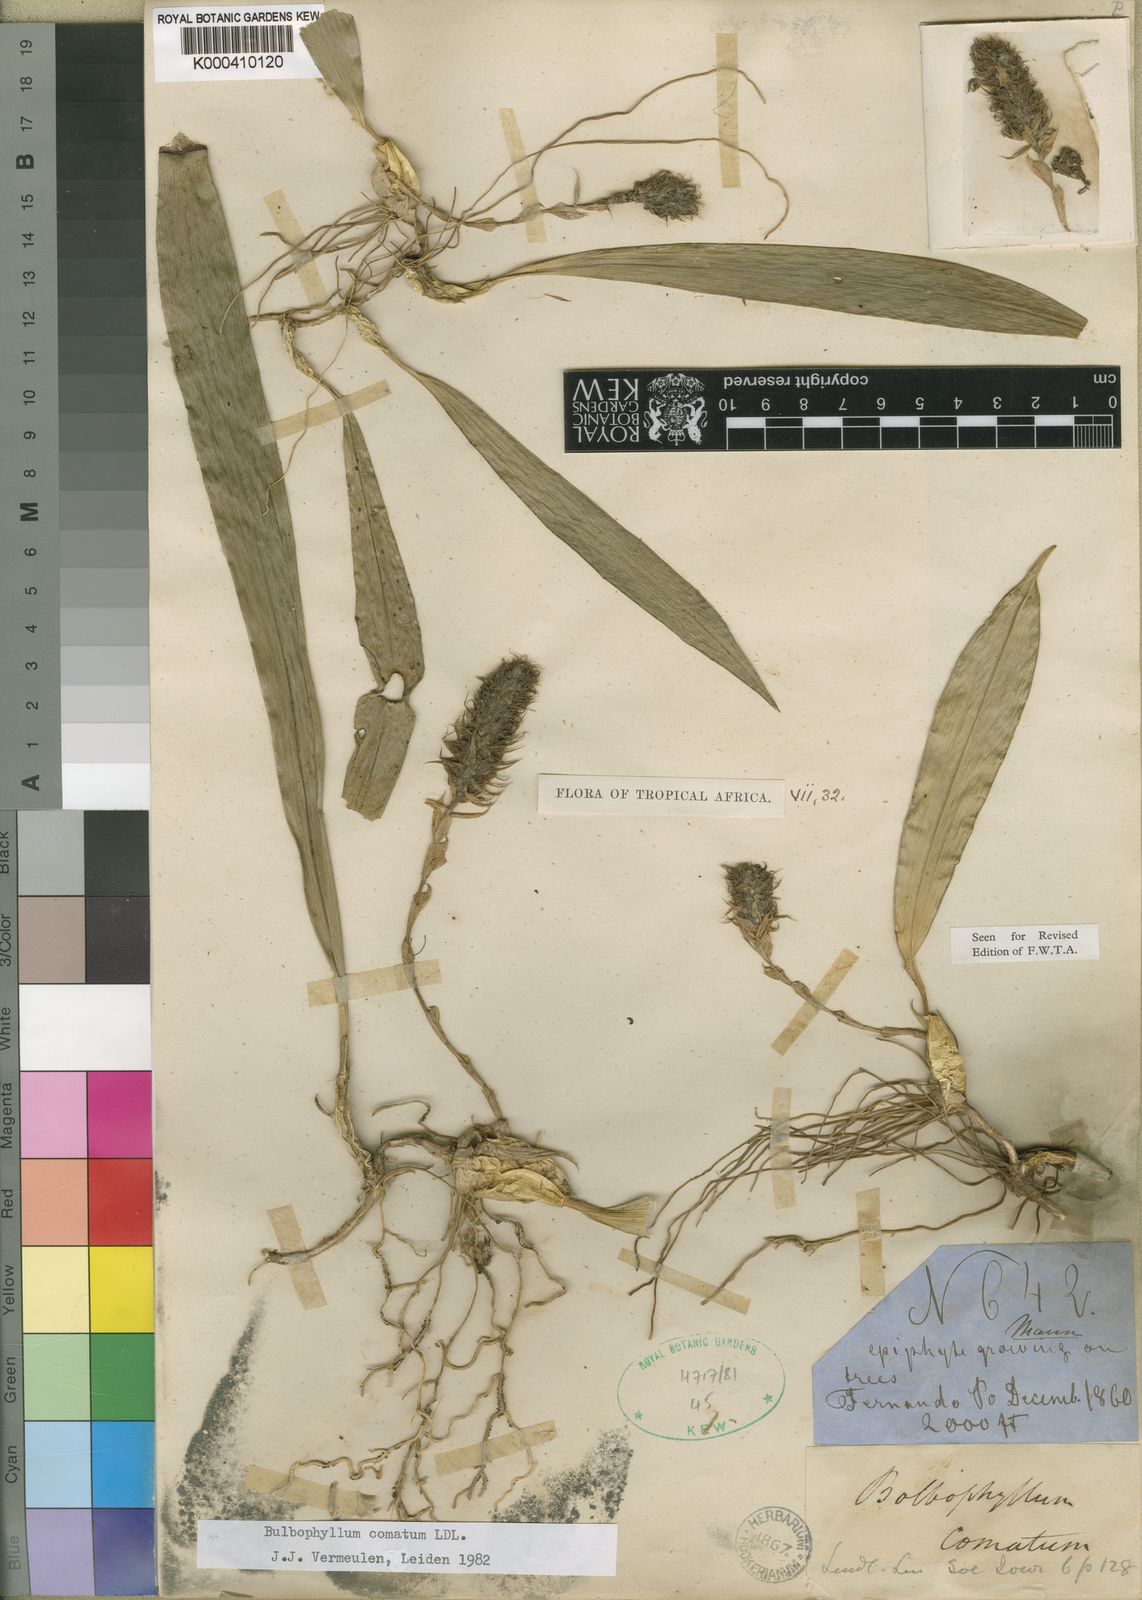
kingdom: Plantae
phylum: Tracheophyta
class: Liliopsida
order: Asparagales
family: Orchidaceae
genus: Bulbophyllum
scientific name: Bulbophyllum comatum
